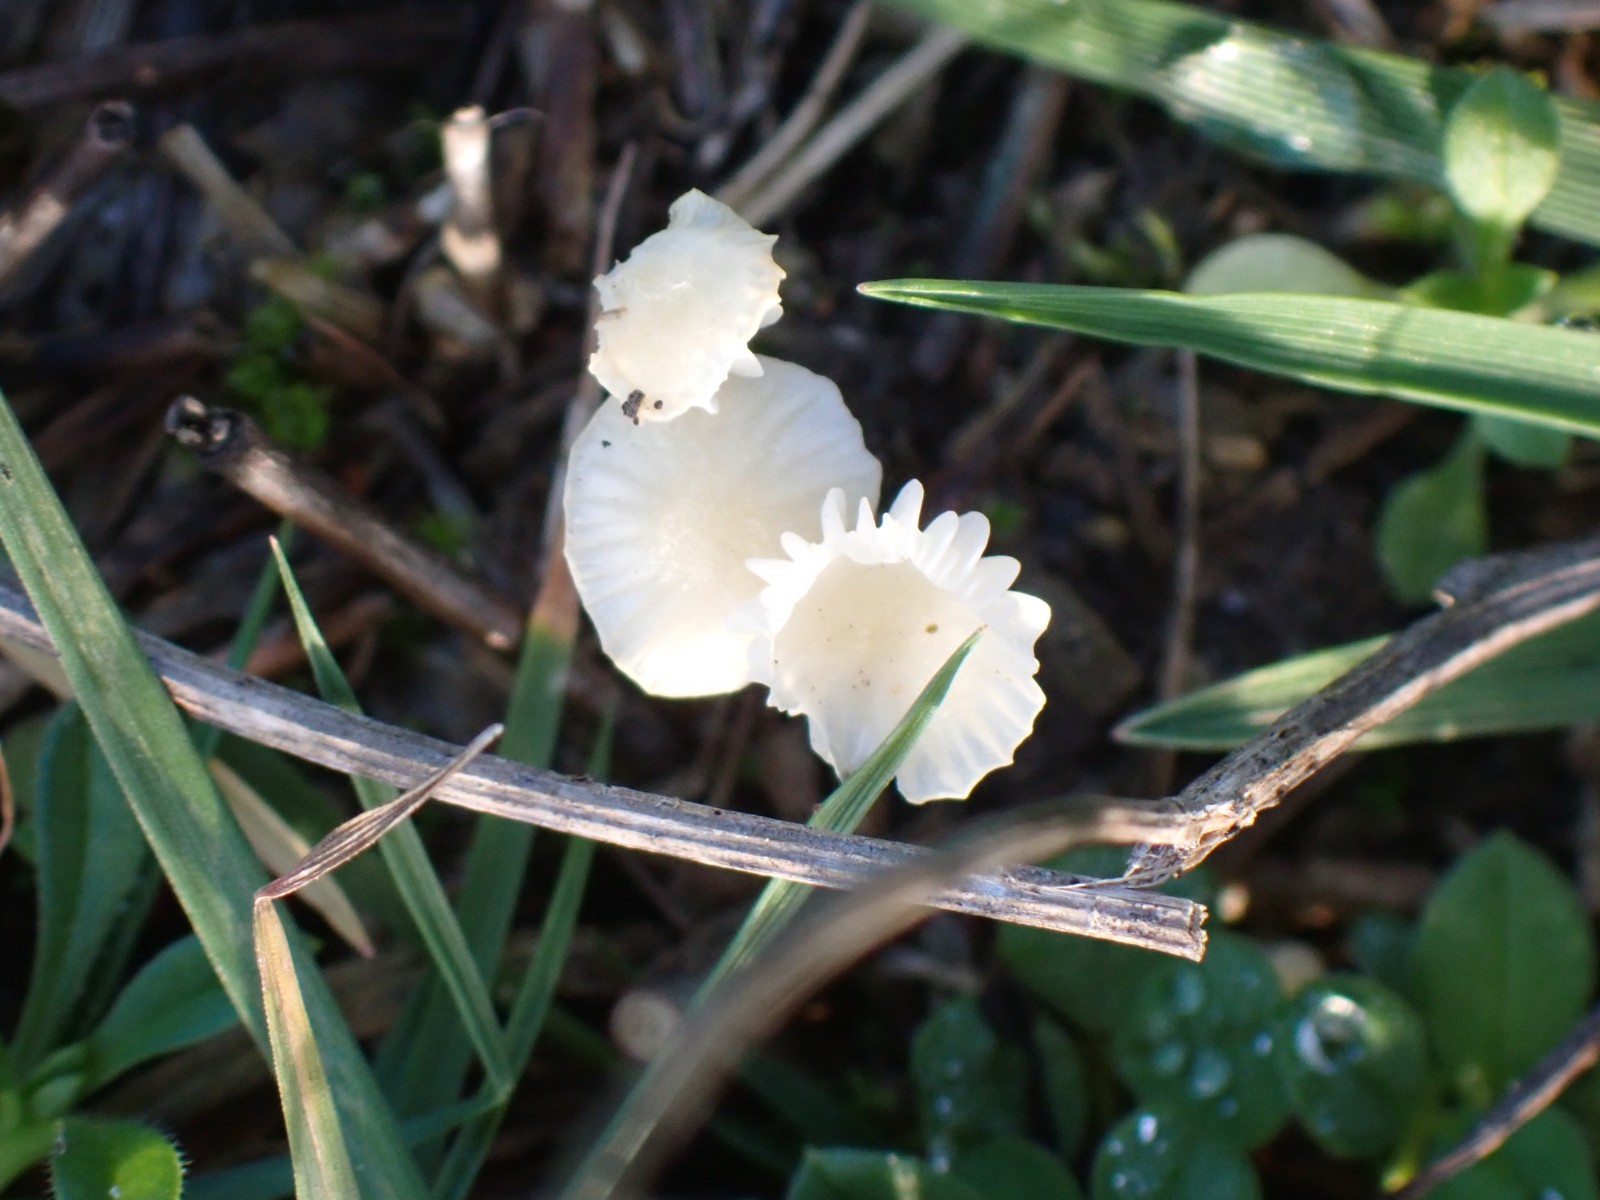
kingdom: Fungi
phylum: Basidiomycota
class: Agaricomycetes
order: Agaricales
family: Hygrophoraceae
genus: Cuphophyllus
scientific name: Cuphophyllus virgineus
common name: snehvid vokshat
